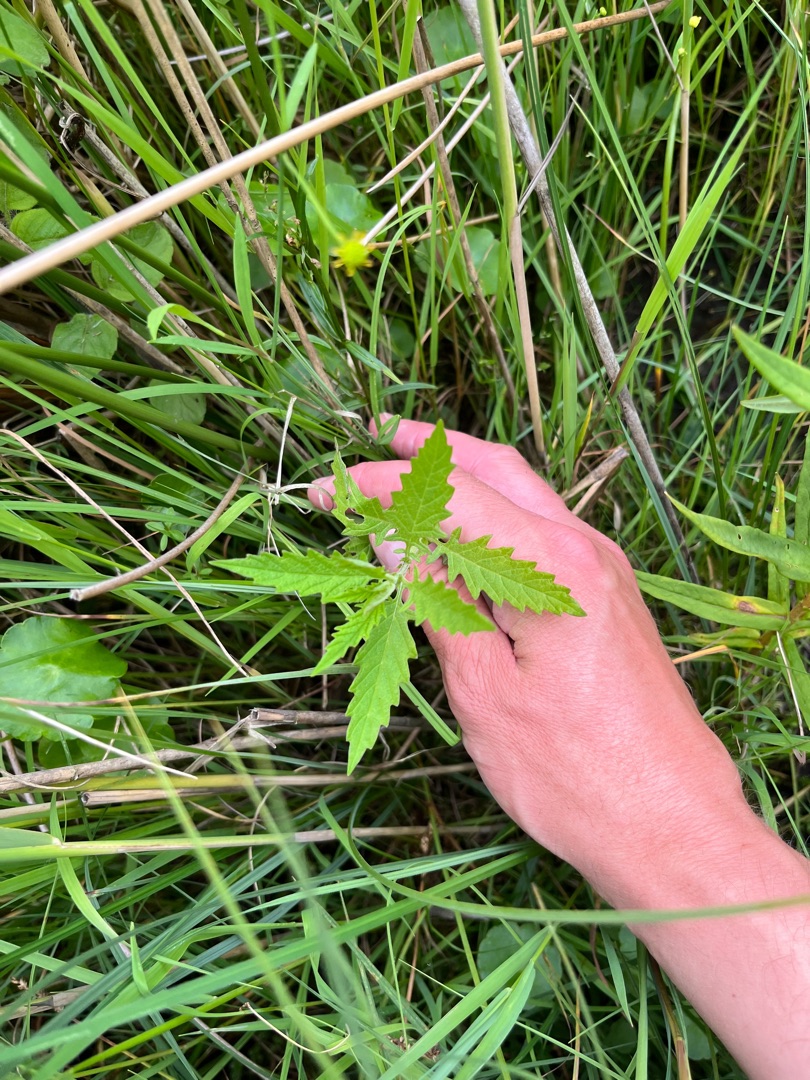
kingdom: Plantae
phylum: Tracheophyta
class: Magnoliopsida
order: Lamiales
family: Lamiaceae
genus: Lycopus
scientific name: Lycopus europaeus
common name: Sværtevæld
